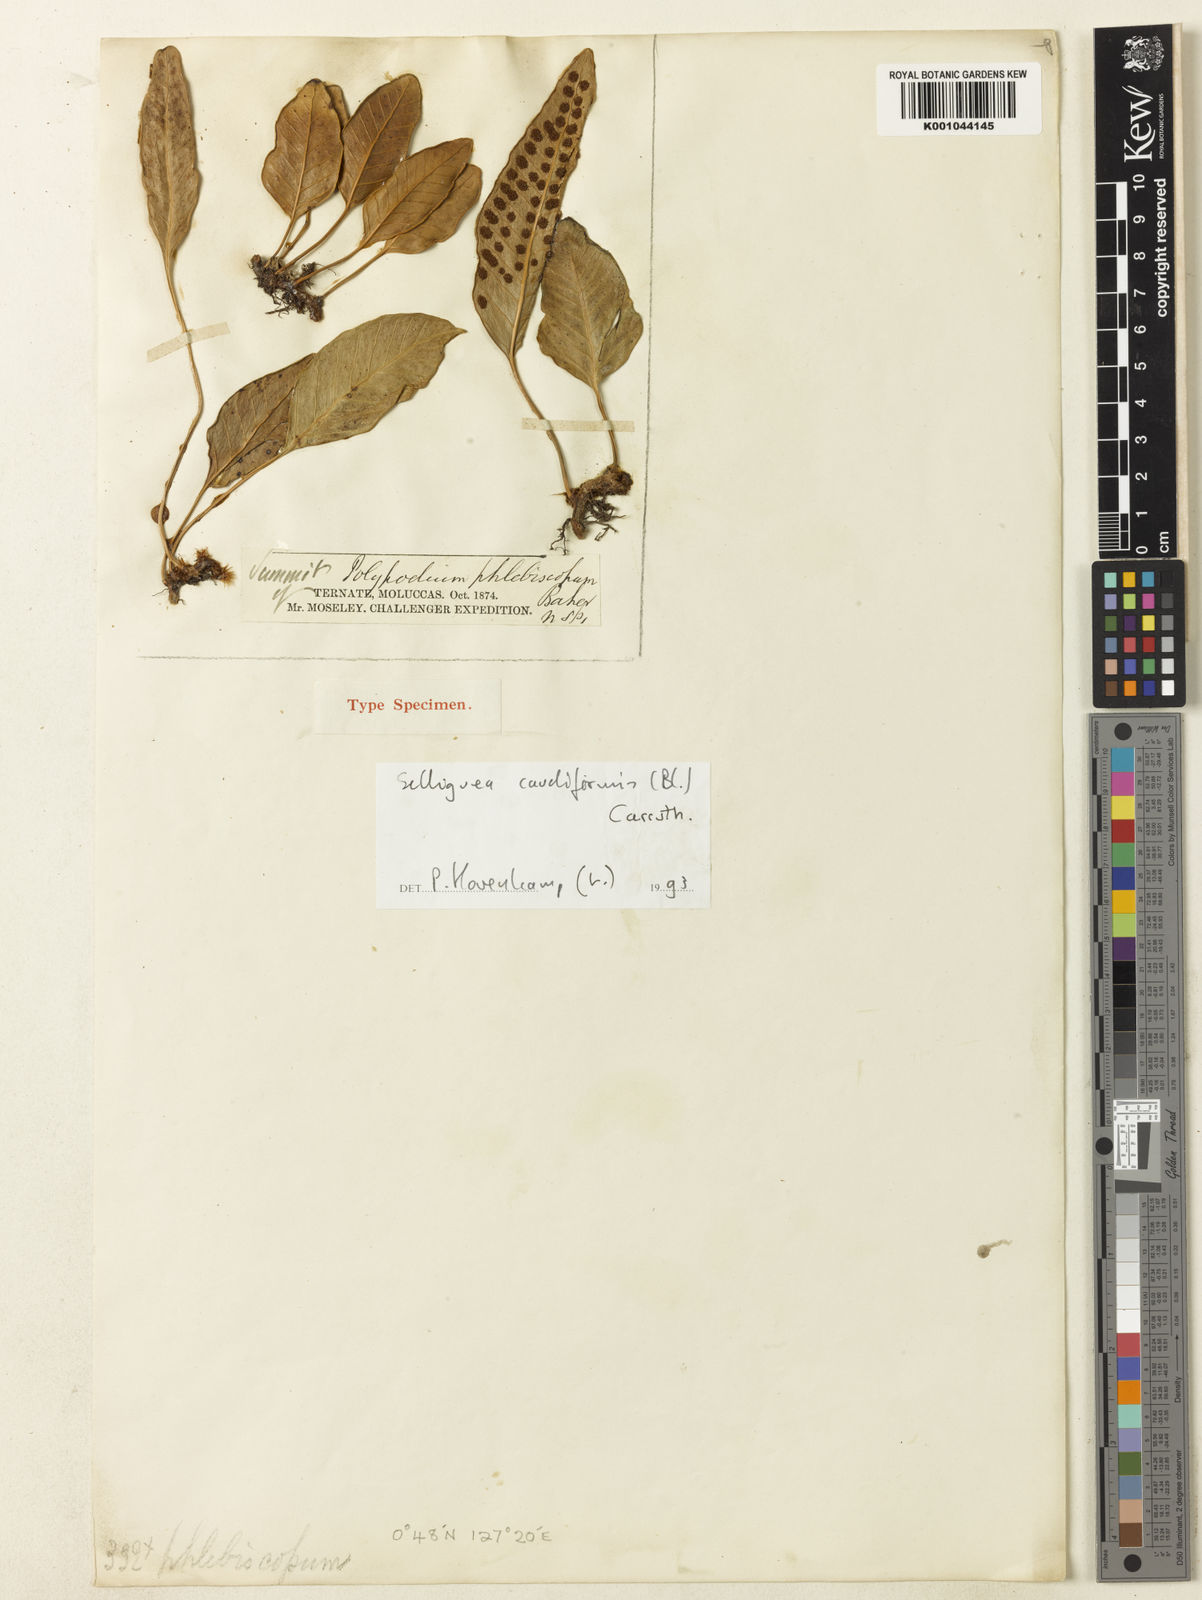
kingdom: Plantae
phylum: Tracheophyta
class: Polypodiopsida
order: Polypodiales
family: Polypodiaceae
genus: Selliguea
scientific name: Selliguea brooksii
